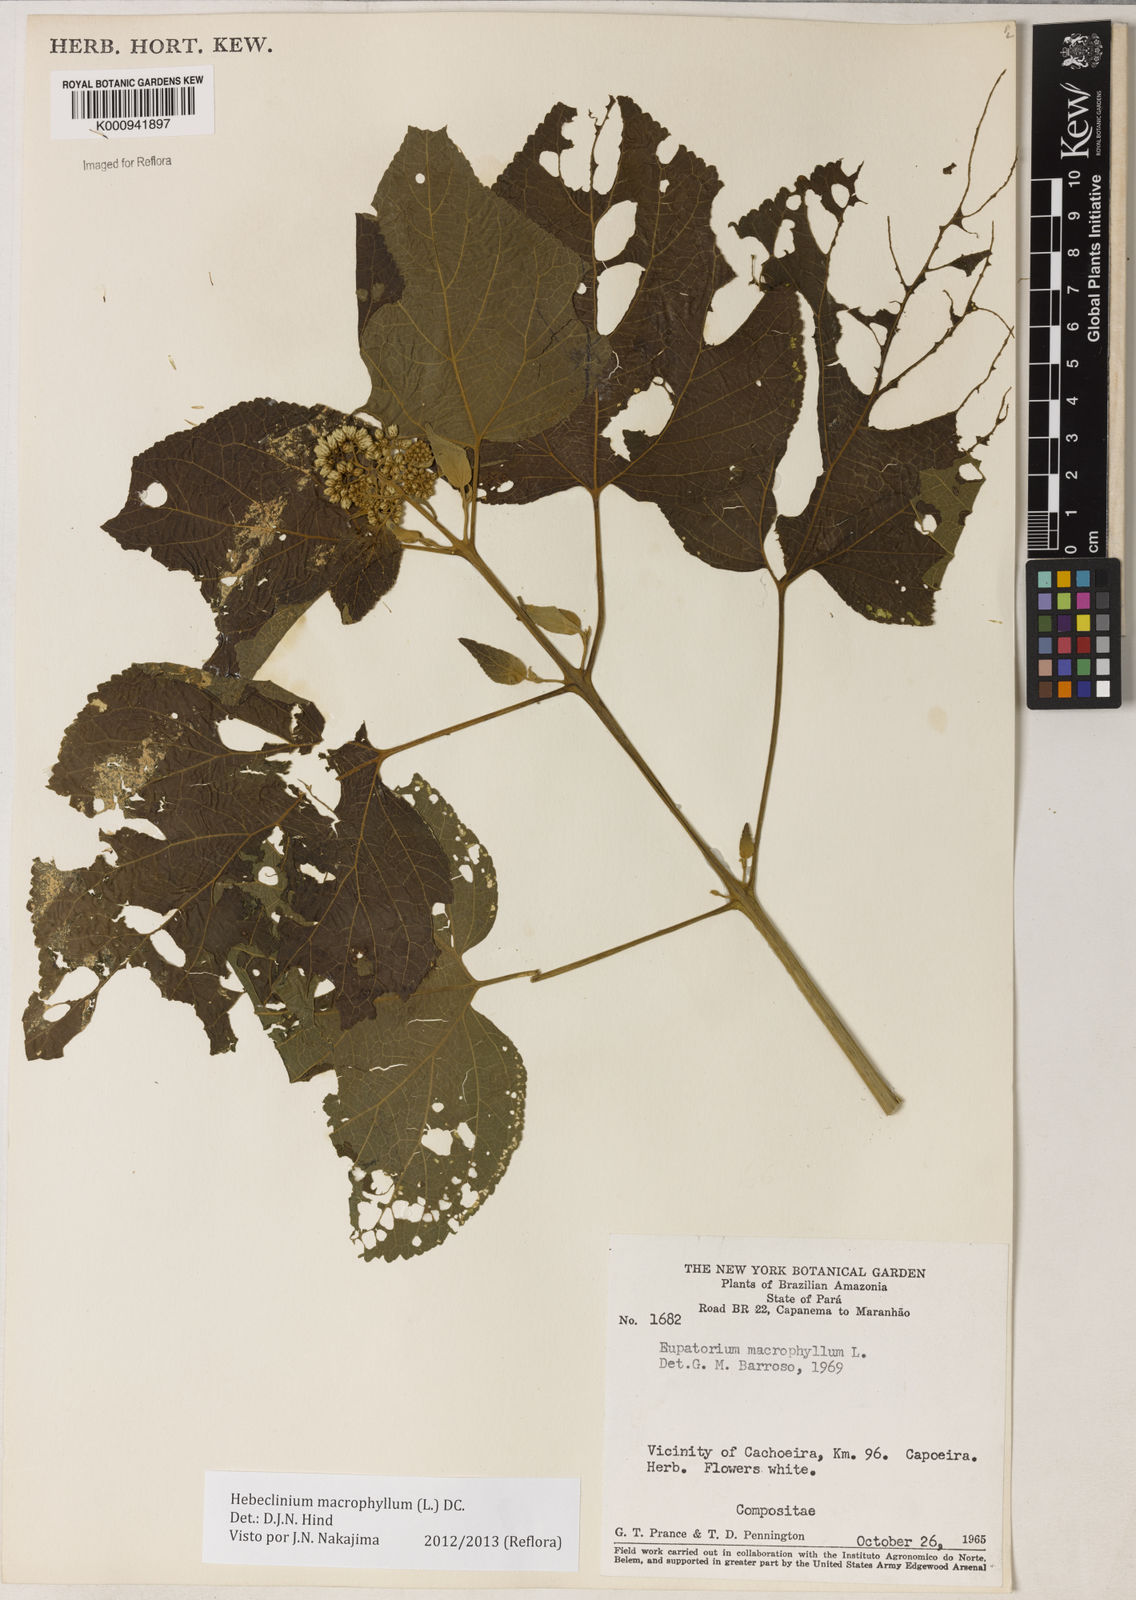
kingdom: Plantae
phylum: Tracheophyta
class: Magnoliopsida
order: Asterales
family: Asteraceae
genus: Hebeclinium
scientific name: Hebeclinium macrophyllum
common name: Largeleaf thoroughwort
